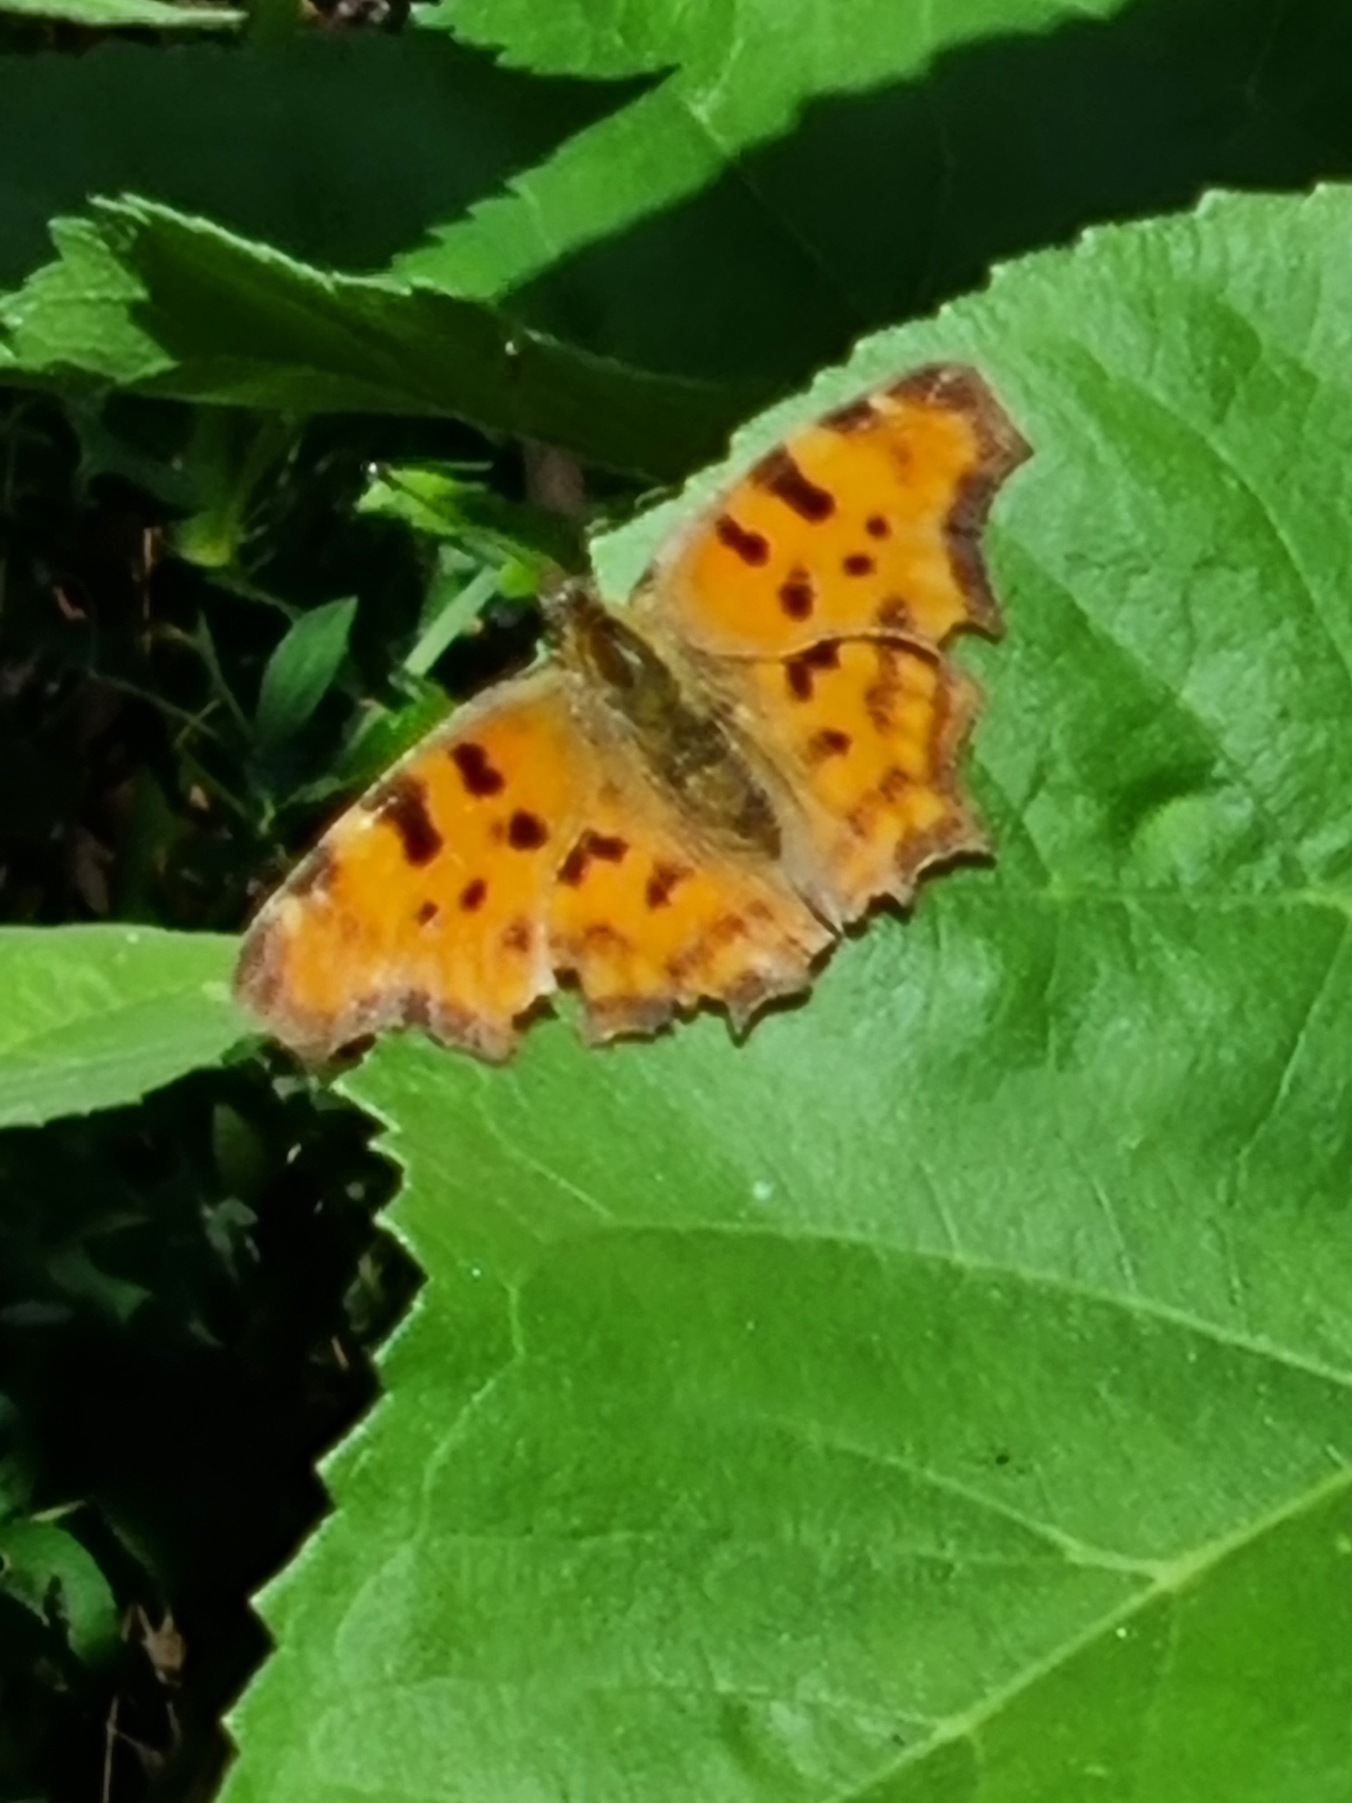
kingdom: Animalia
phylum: Arthropoda
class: Insecta
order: Lepidoptera
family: Nymphalidae
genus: Polygonia
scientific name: Polygonia c-album
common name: Det hvide C
